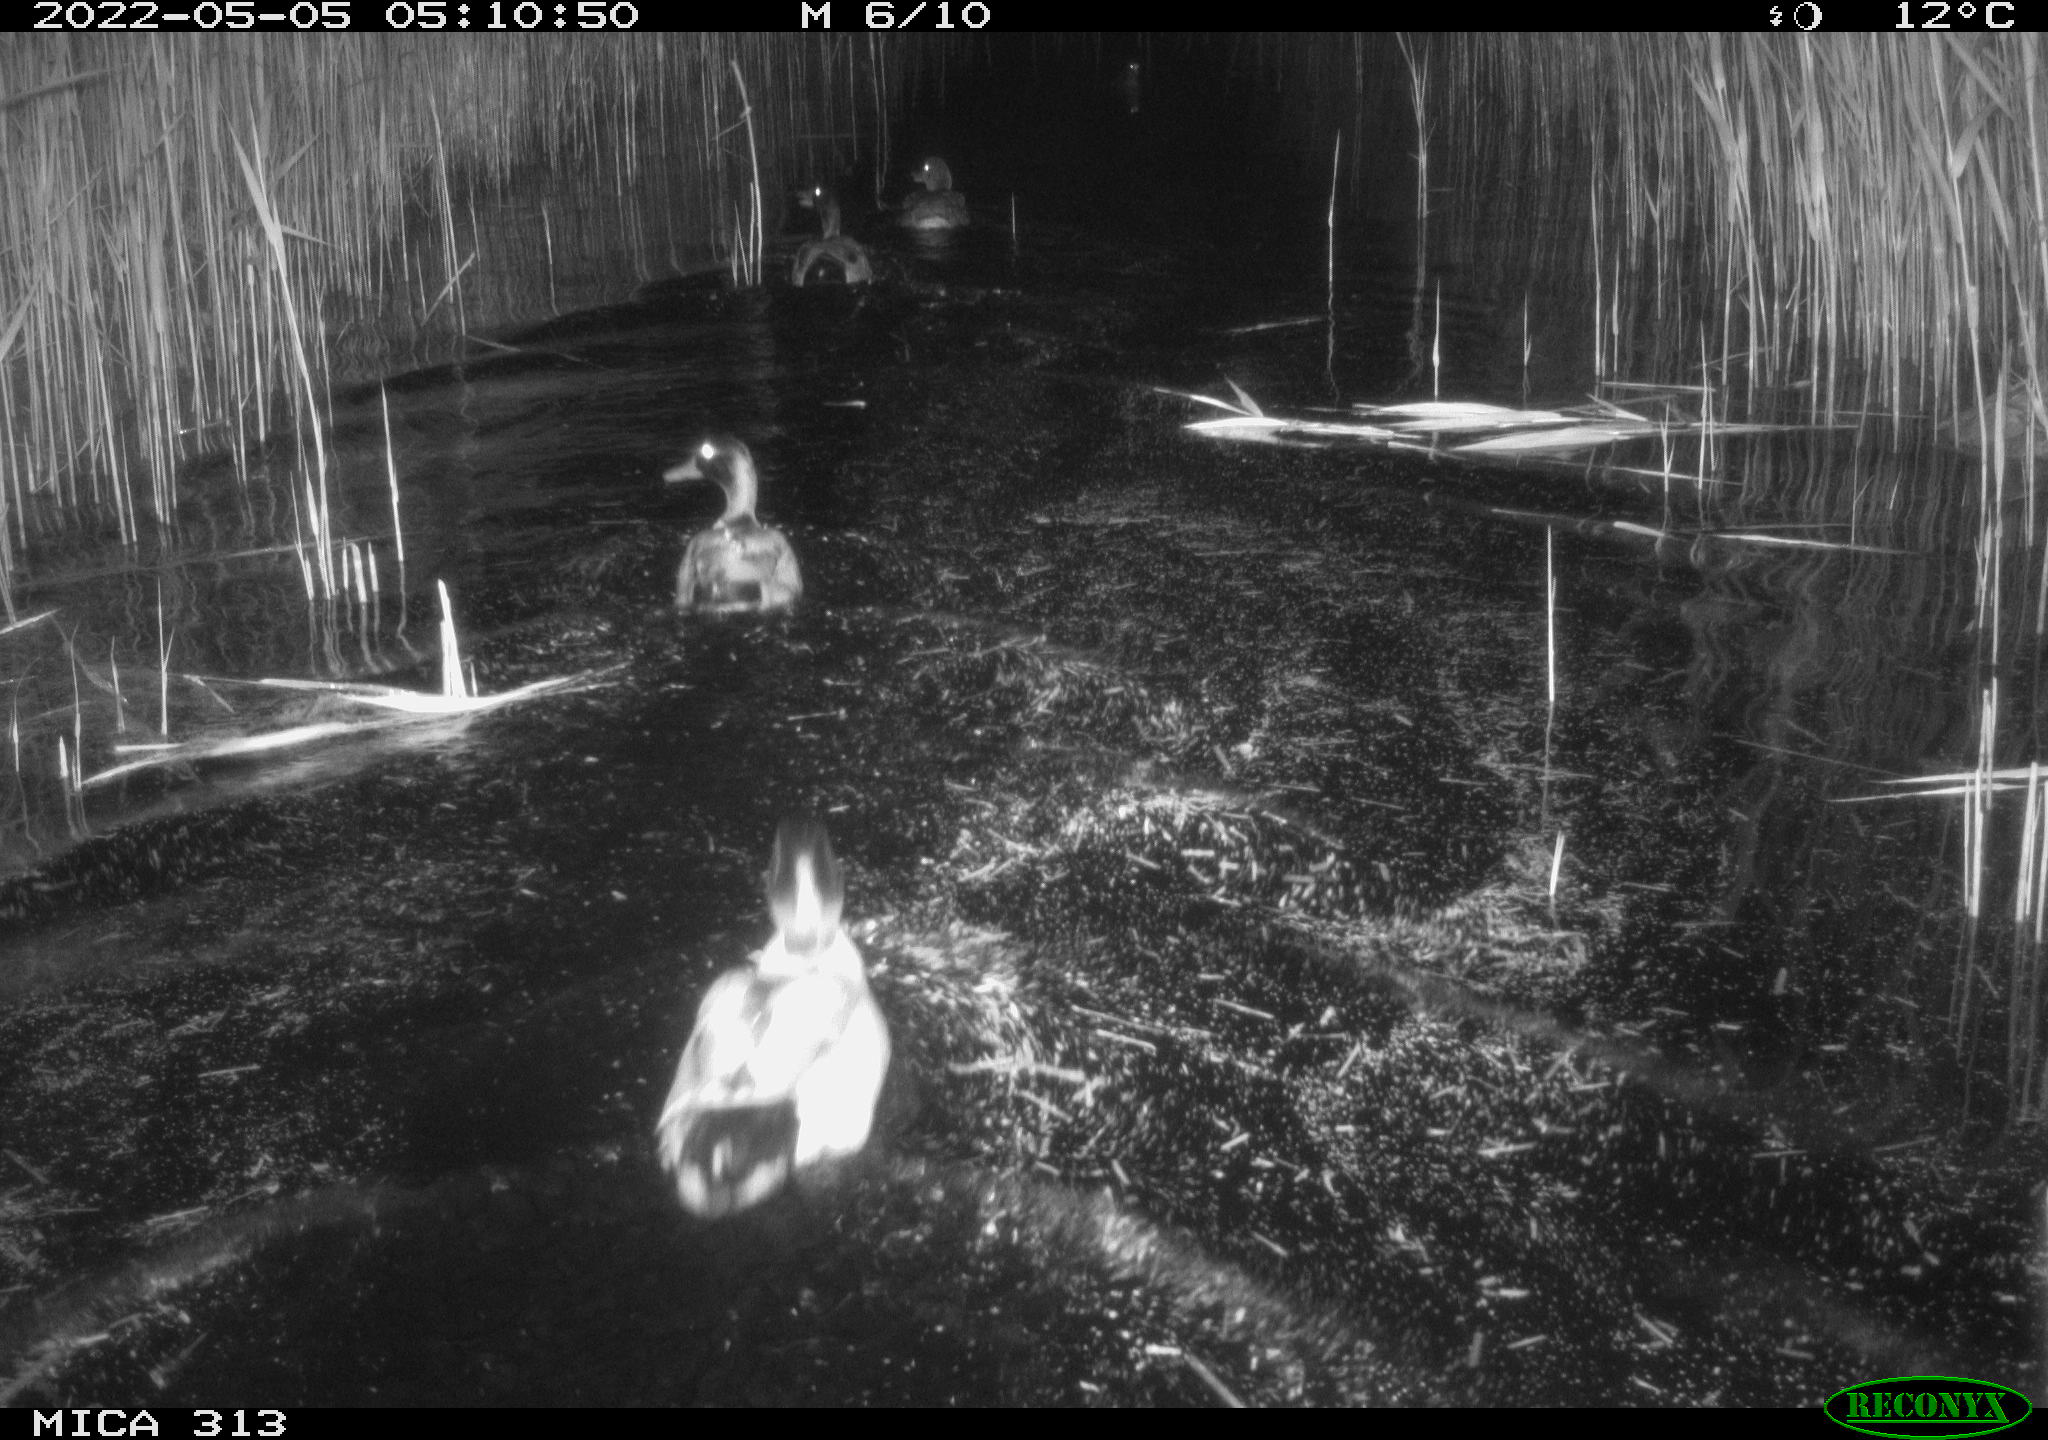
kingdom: Animalia
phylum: Chordata
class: Aves
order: Anseriformes
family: Anatidae
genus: Anas
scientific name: Anas platyrhynchos
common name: Mallard
